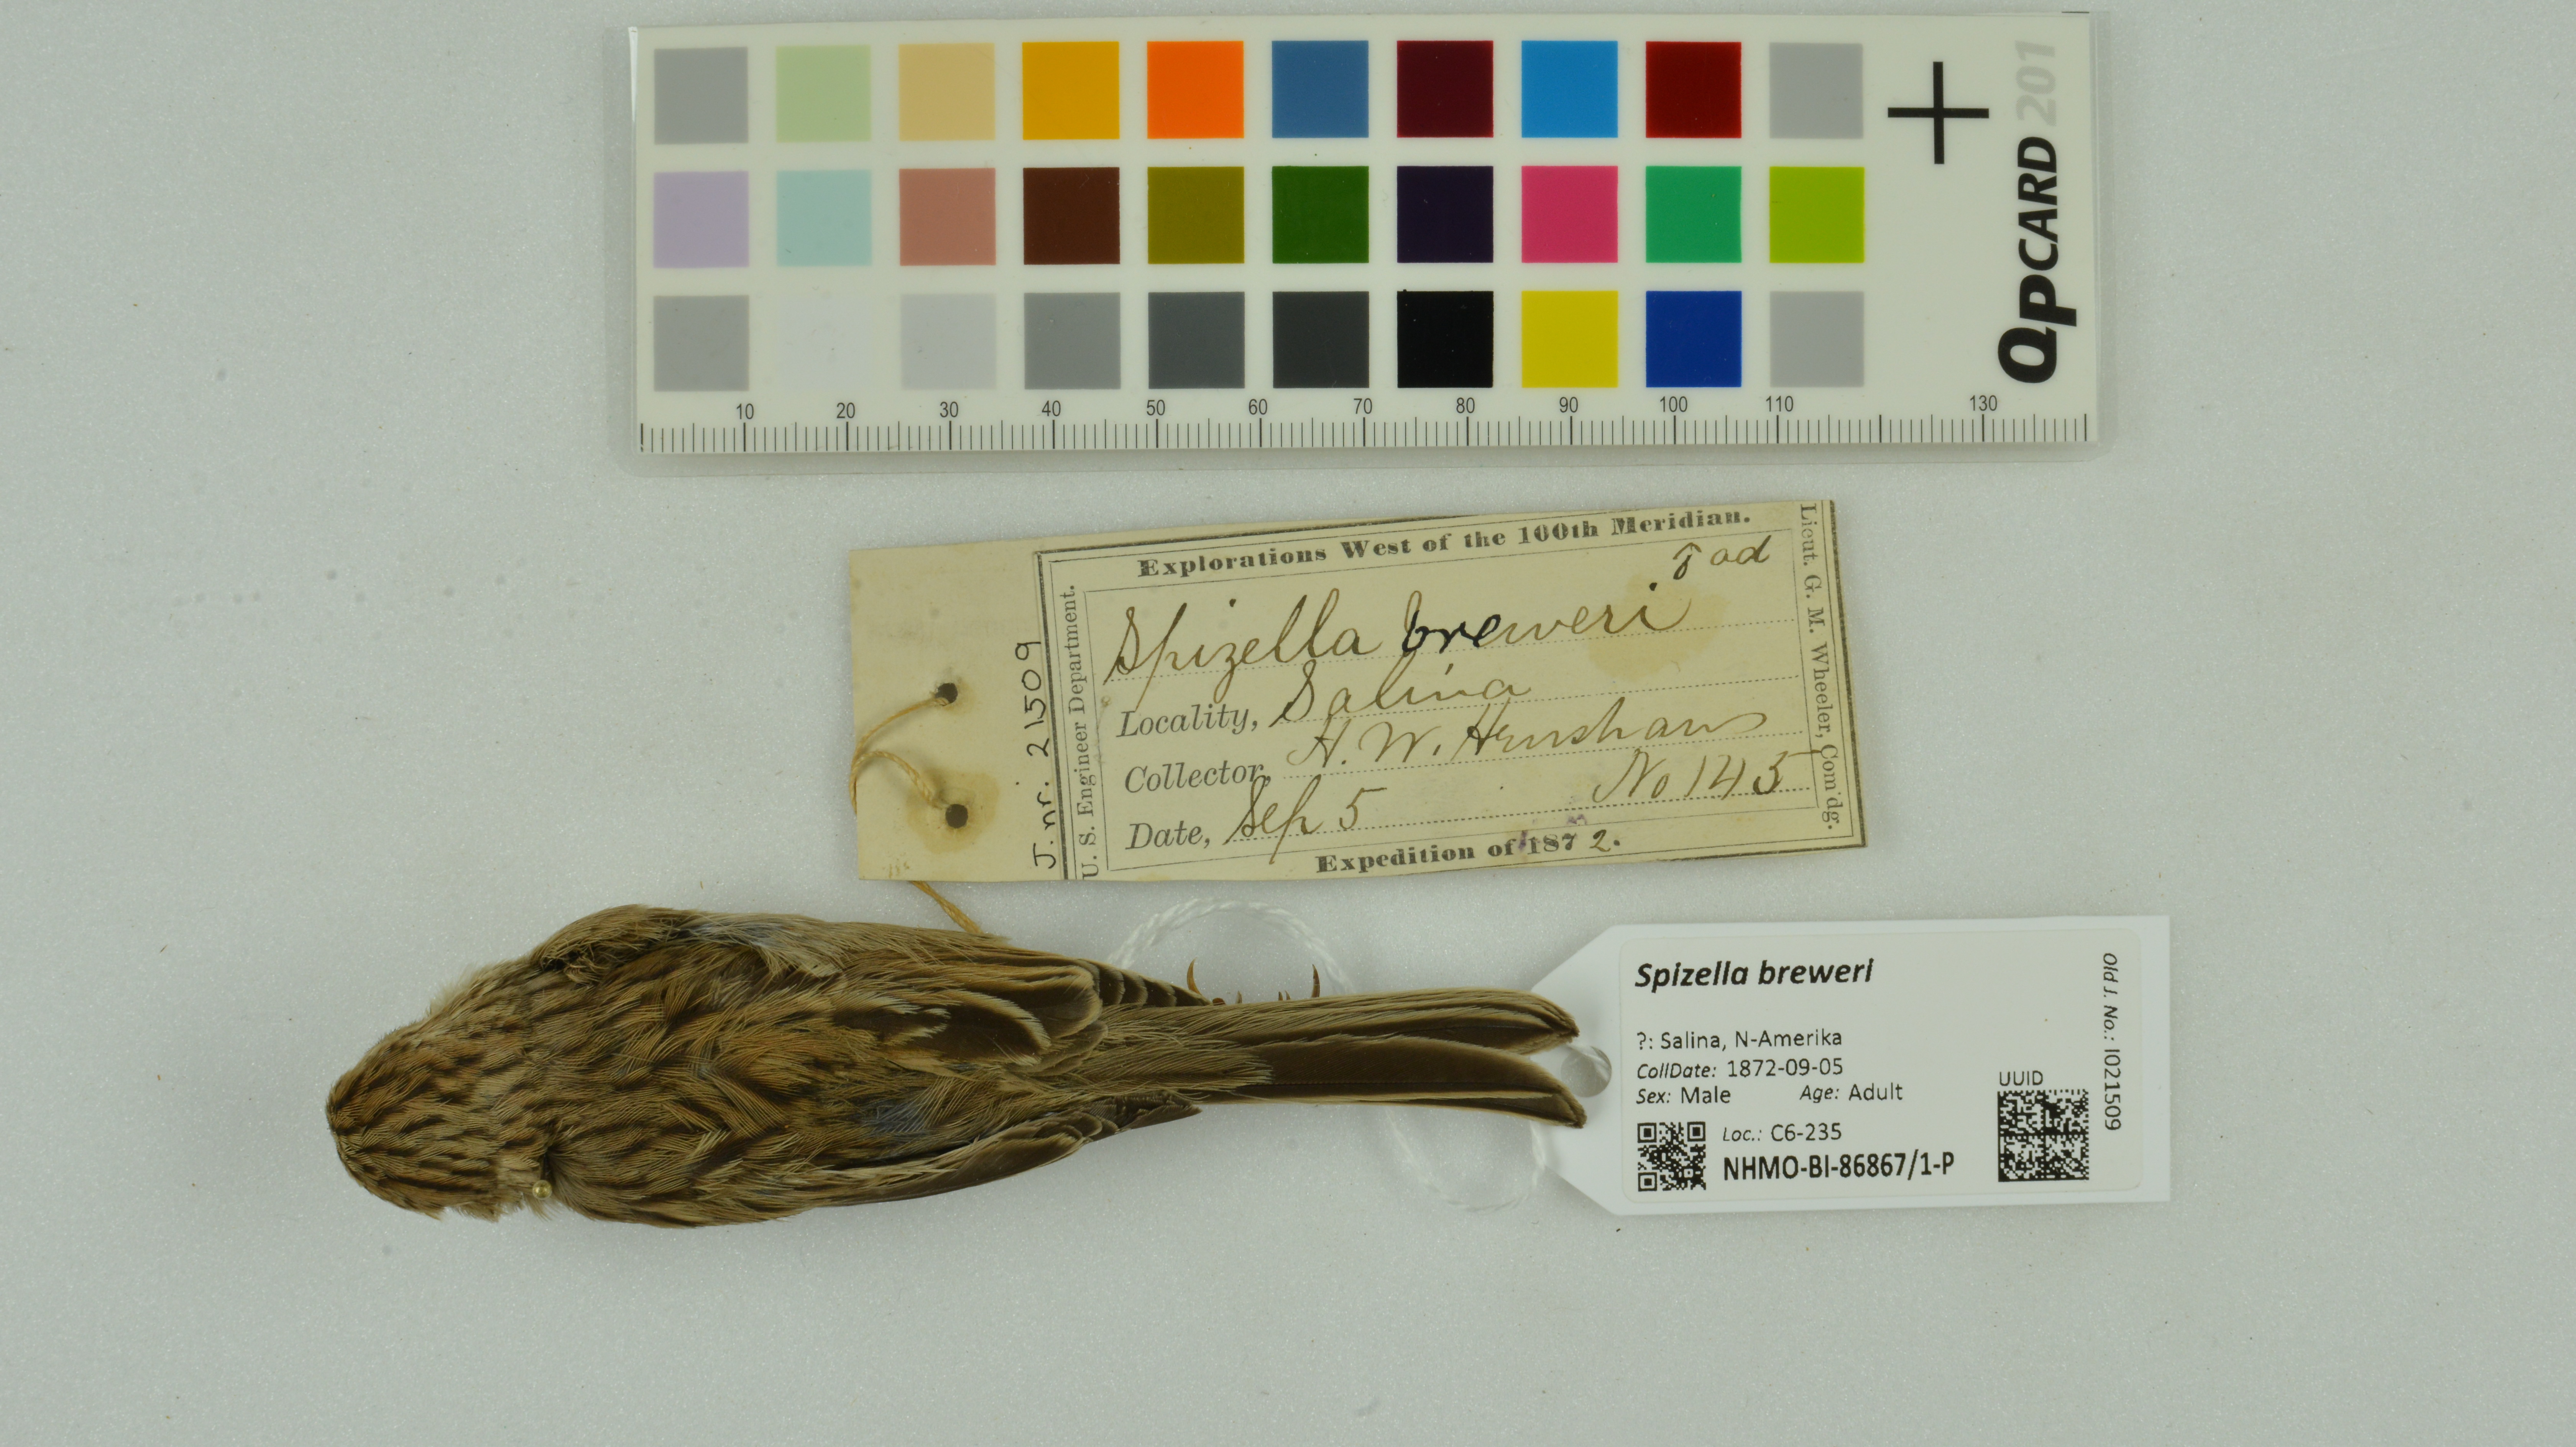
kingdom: Animalia
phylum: Chordata
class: Aves
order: Passeriformes
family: Passerellidae
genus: Spizella
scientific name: Spizella breweri
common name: Brewer's sparrow
